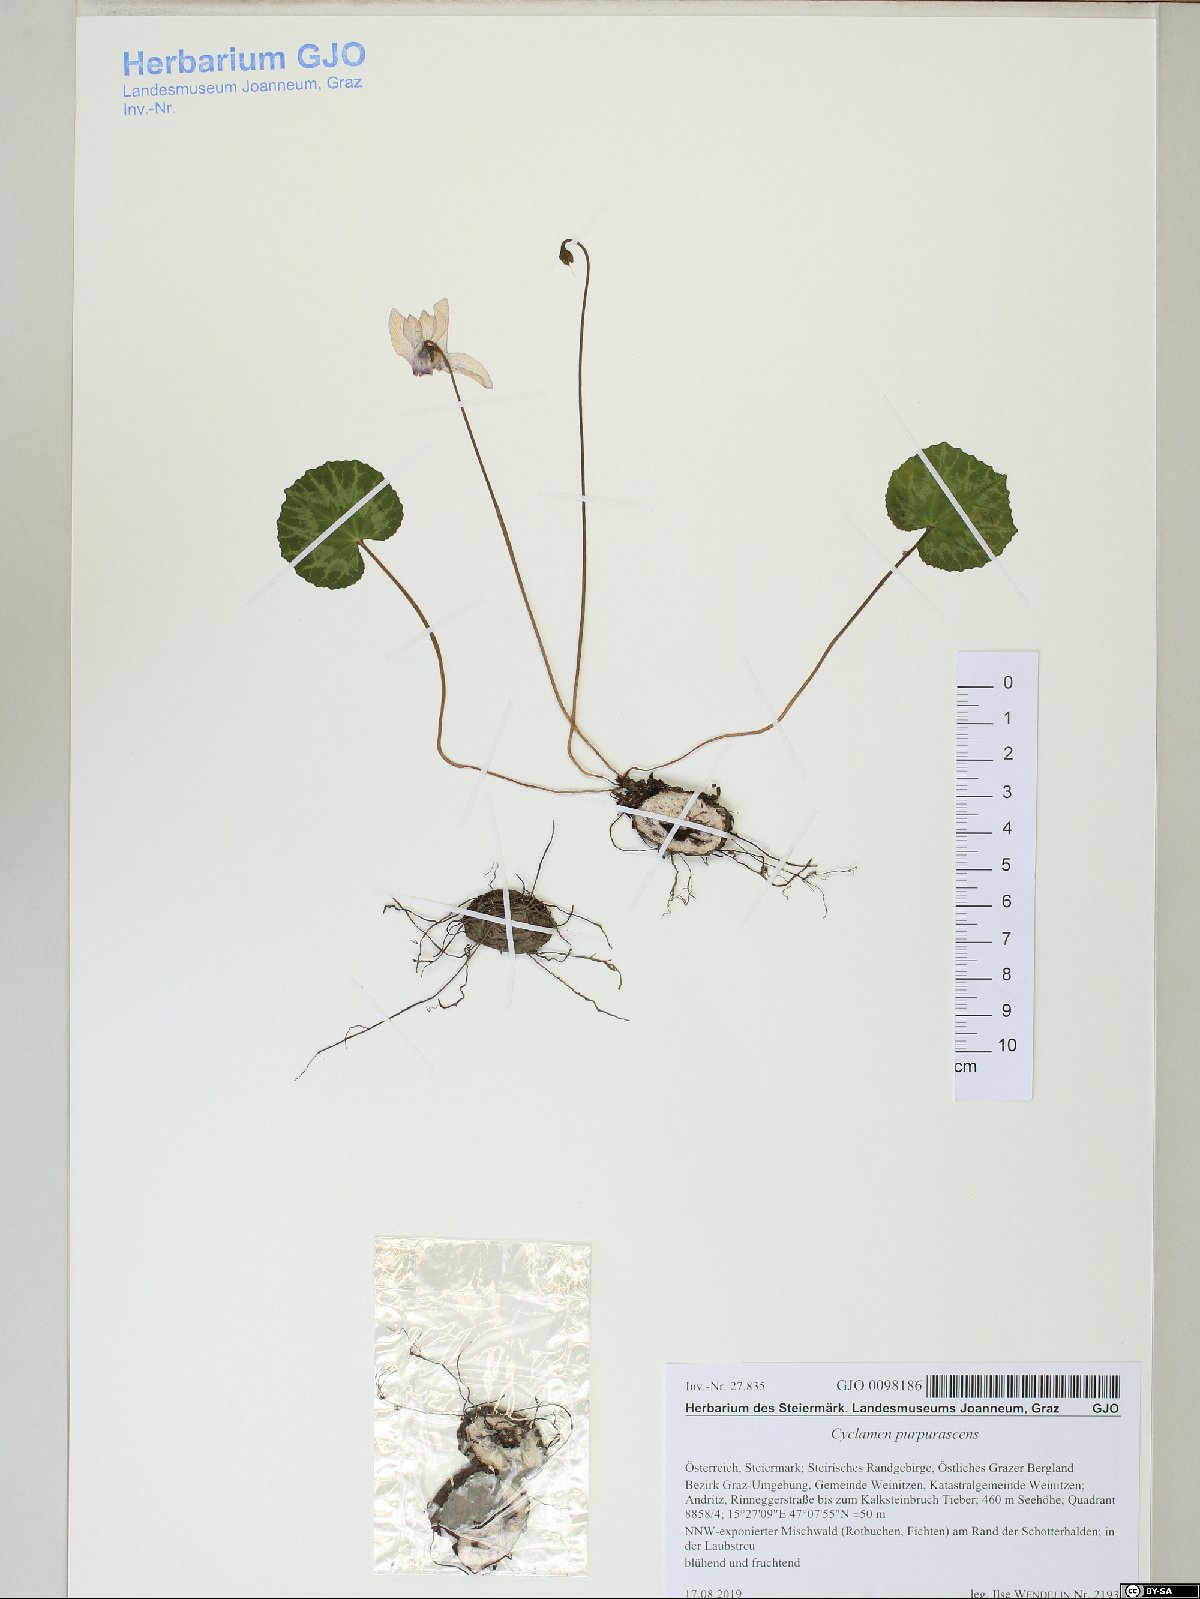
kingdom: Plantae
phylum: Tracheophyta
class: Magnoliopsida
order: Ericales
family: Primulaceae
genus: Cyclamen
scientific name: Cyclamen purpurascens
